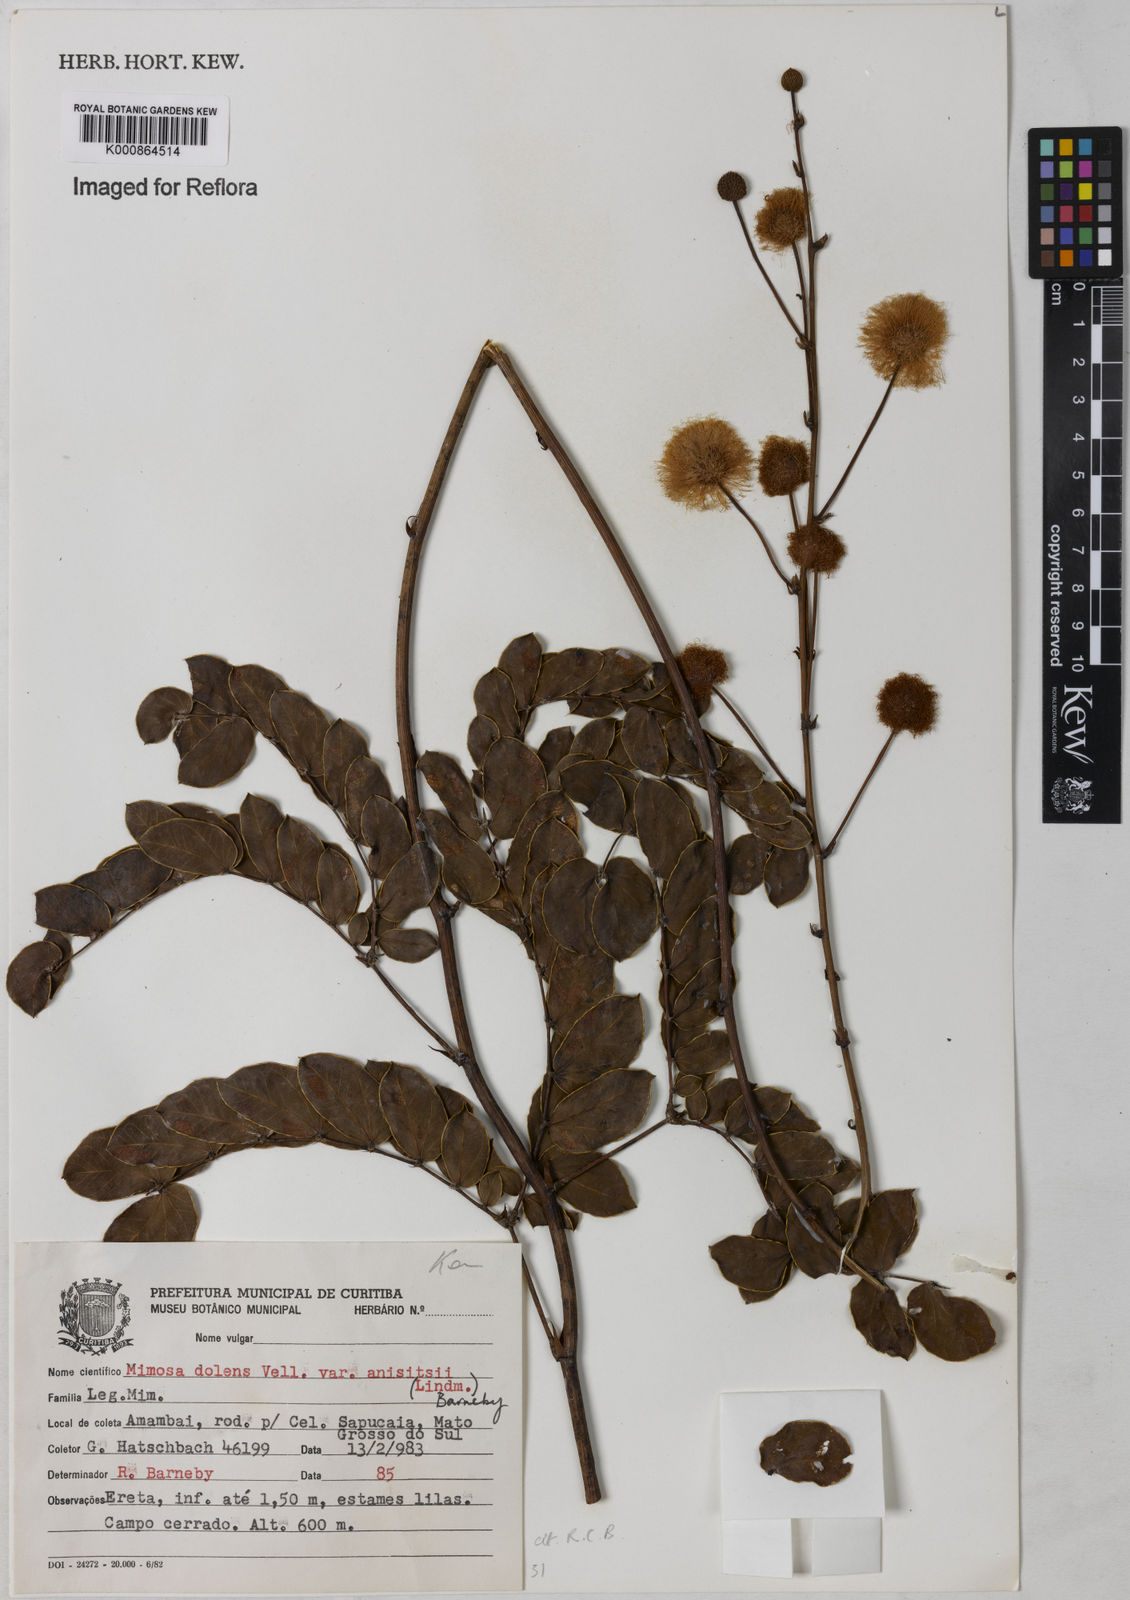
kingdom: Plantae
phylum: Tracheophyta
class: Magnoliopsida
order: Fabales
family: Fabaceae
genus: Mimosa
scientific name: Mimosa dolens
